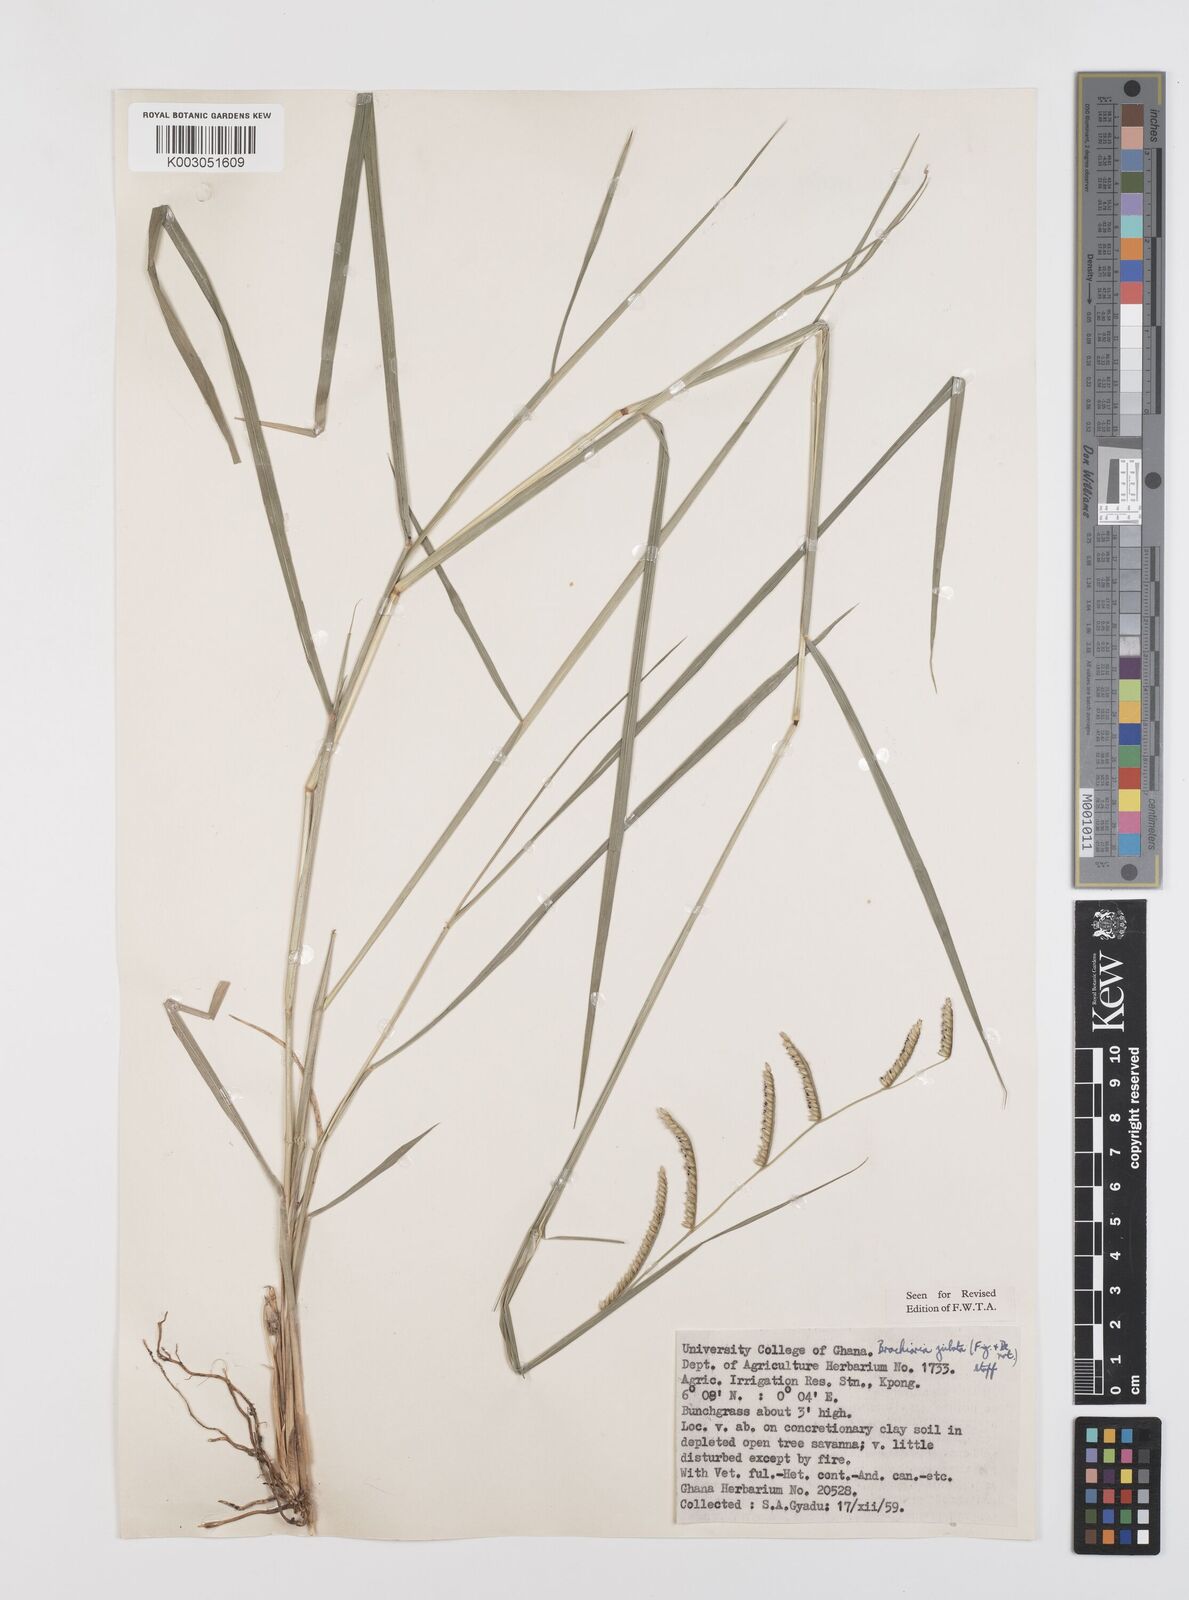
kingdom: Plantae
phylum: Tracheophyta
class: Liliopsida
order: Poales
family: Poaceae
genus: Urochloa
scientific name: Urochloa jubata
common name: Buffalograss
